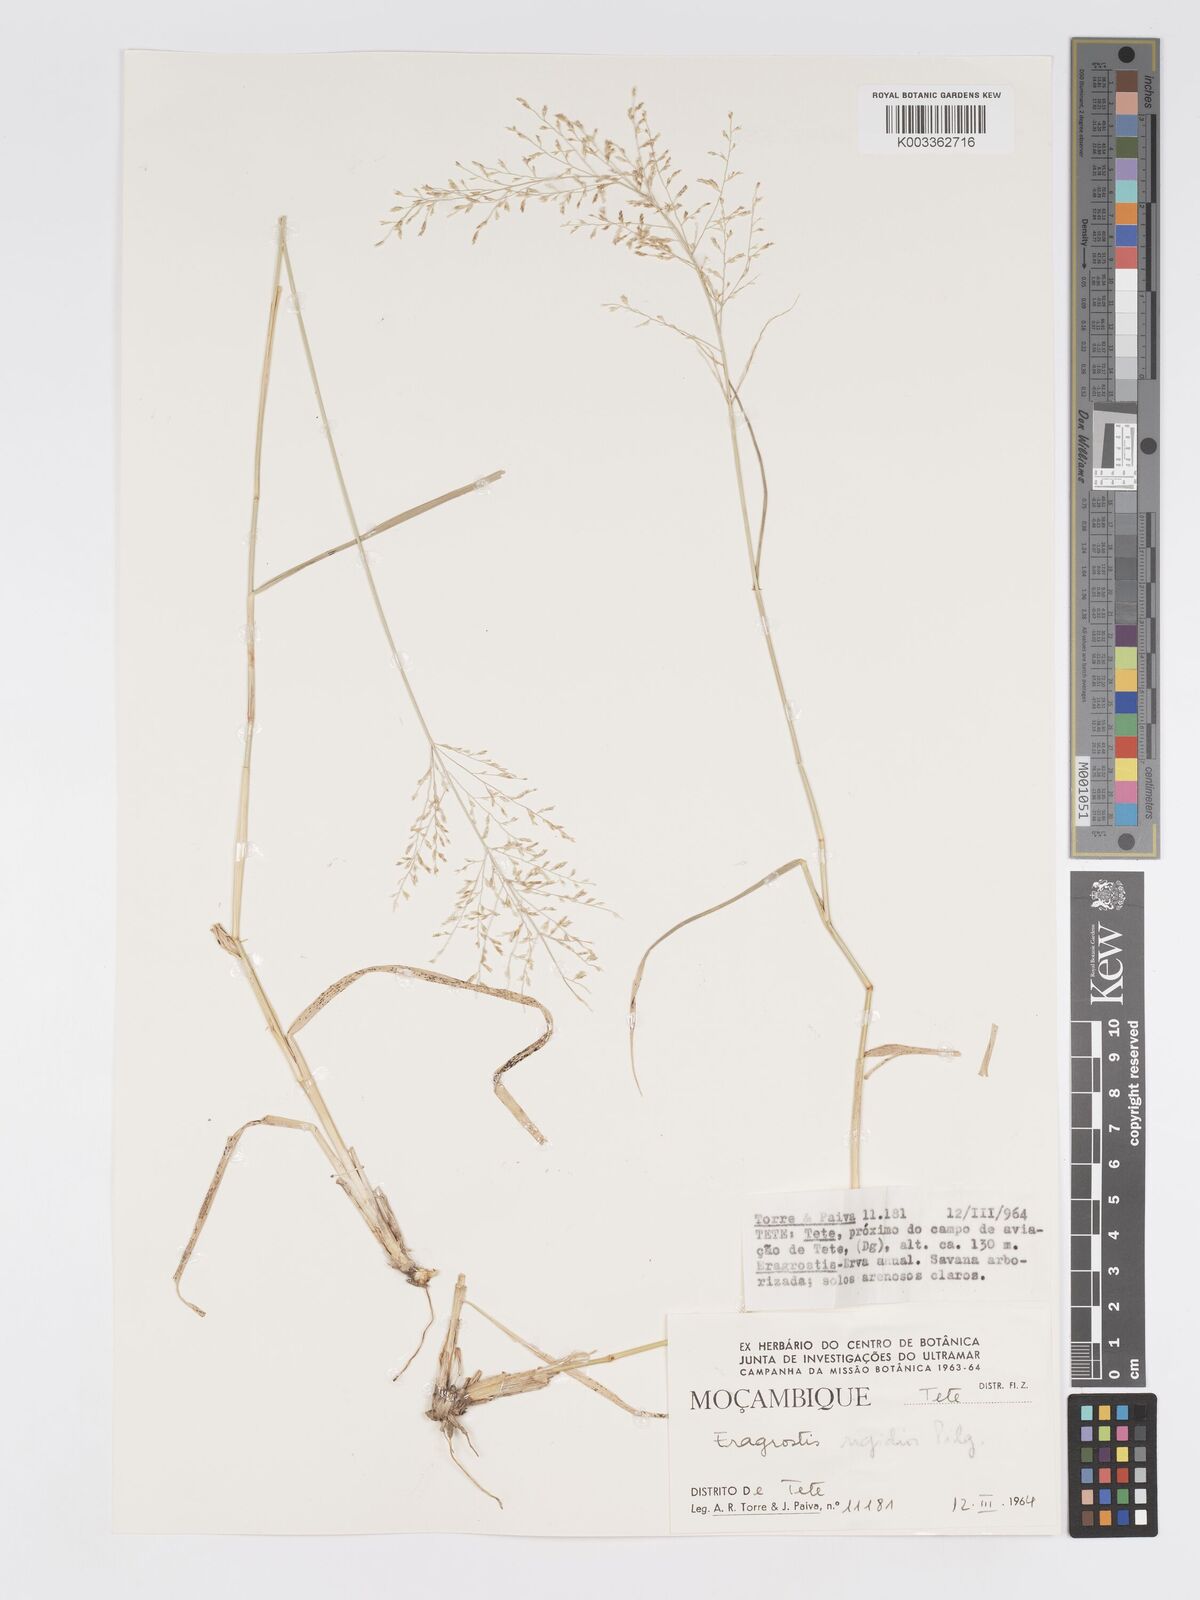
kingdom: Plantae
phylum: Tracheophyta
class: Liliopsida
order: Poales
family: Poaceae
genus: Eragrostis
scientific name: Eragrostis cylindriflora
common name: Cylinderflower lovegrass
